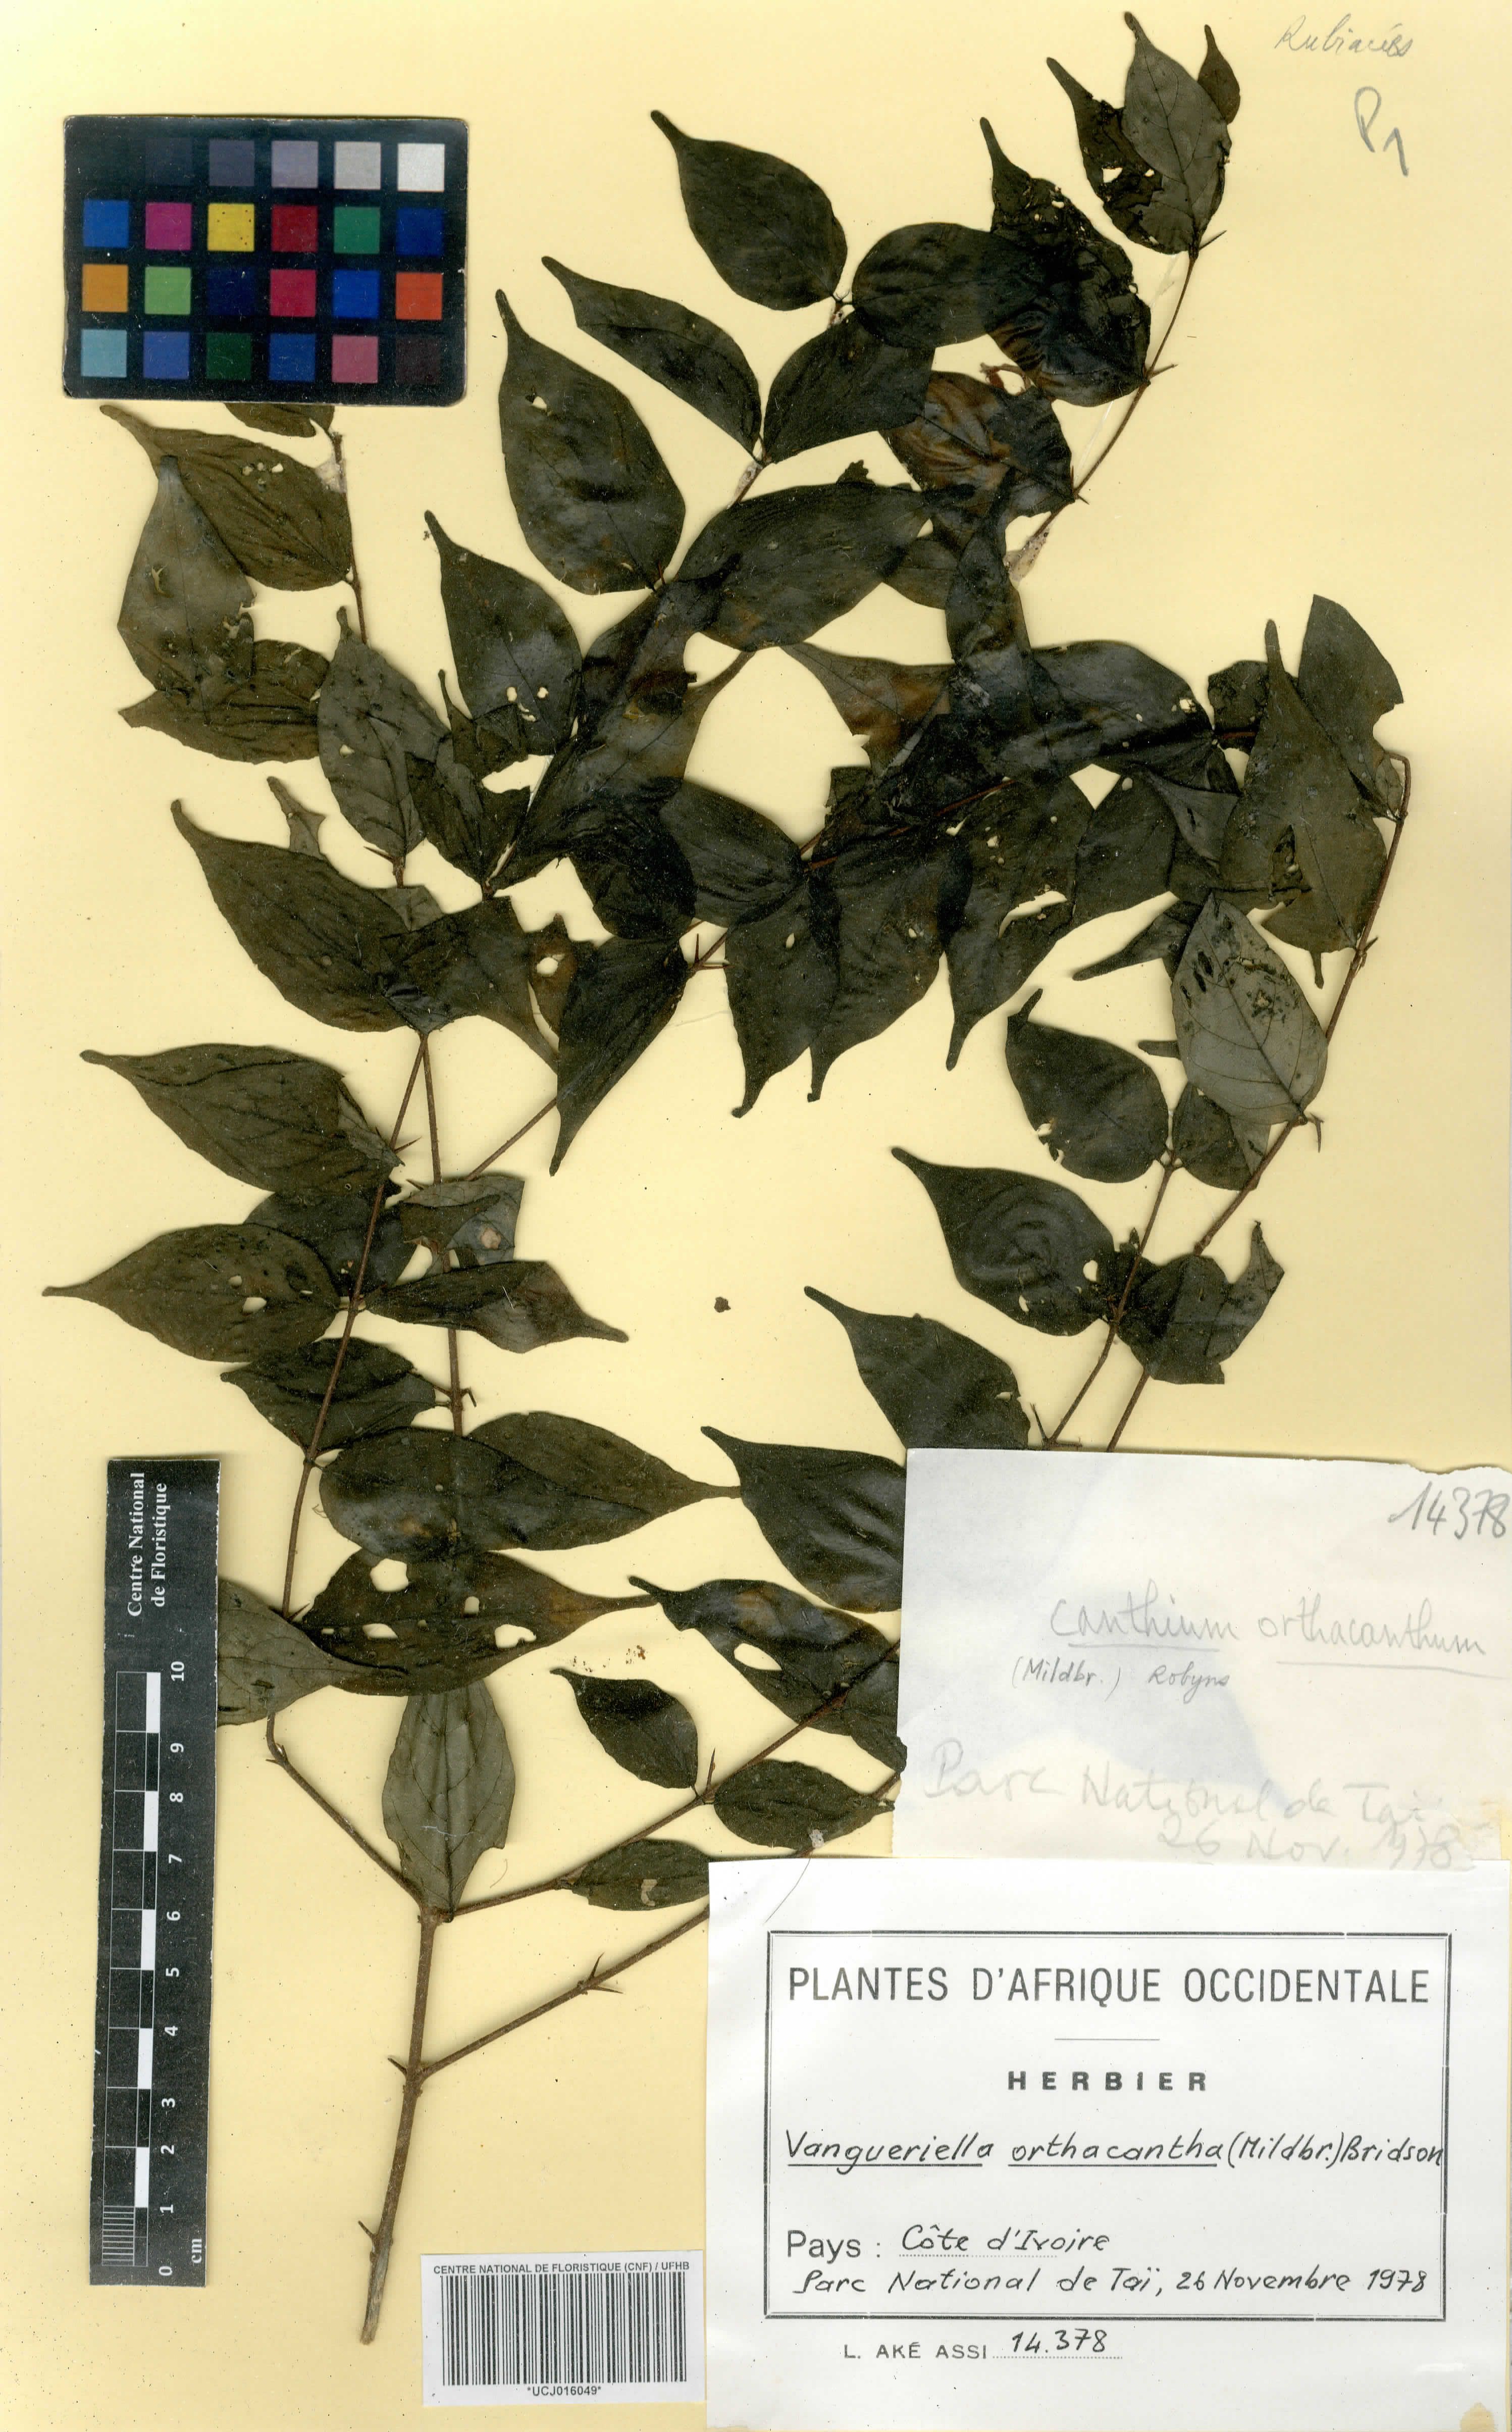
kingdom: Plantae
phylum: Tracheophyta
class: Magnoliopsida
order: Gentianales
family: Rubiaceae
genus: Vangueriella
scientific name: Vangueriella orthacantha
